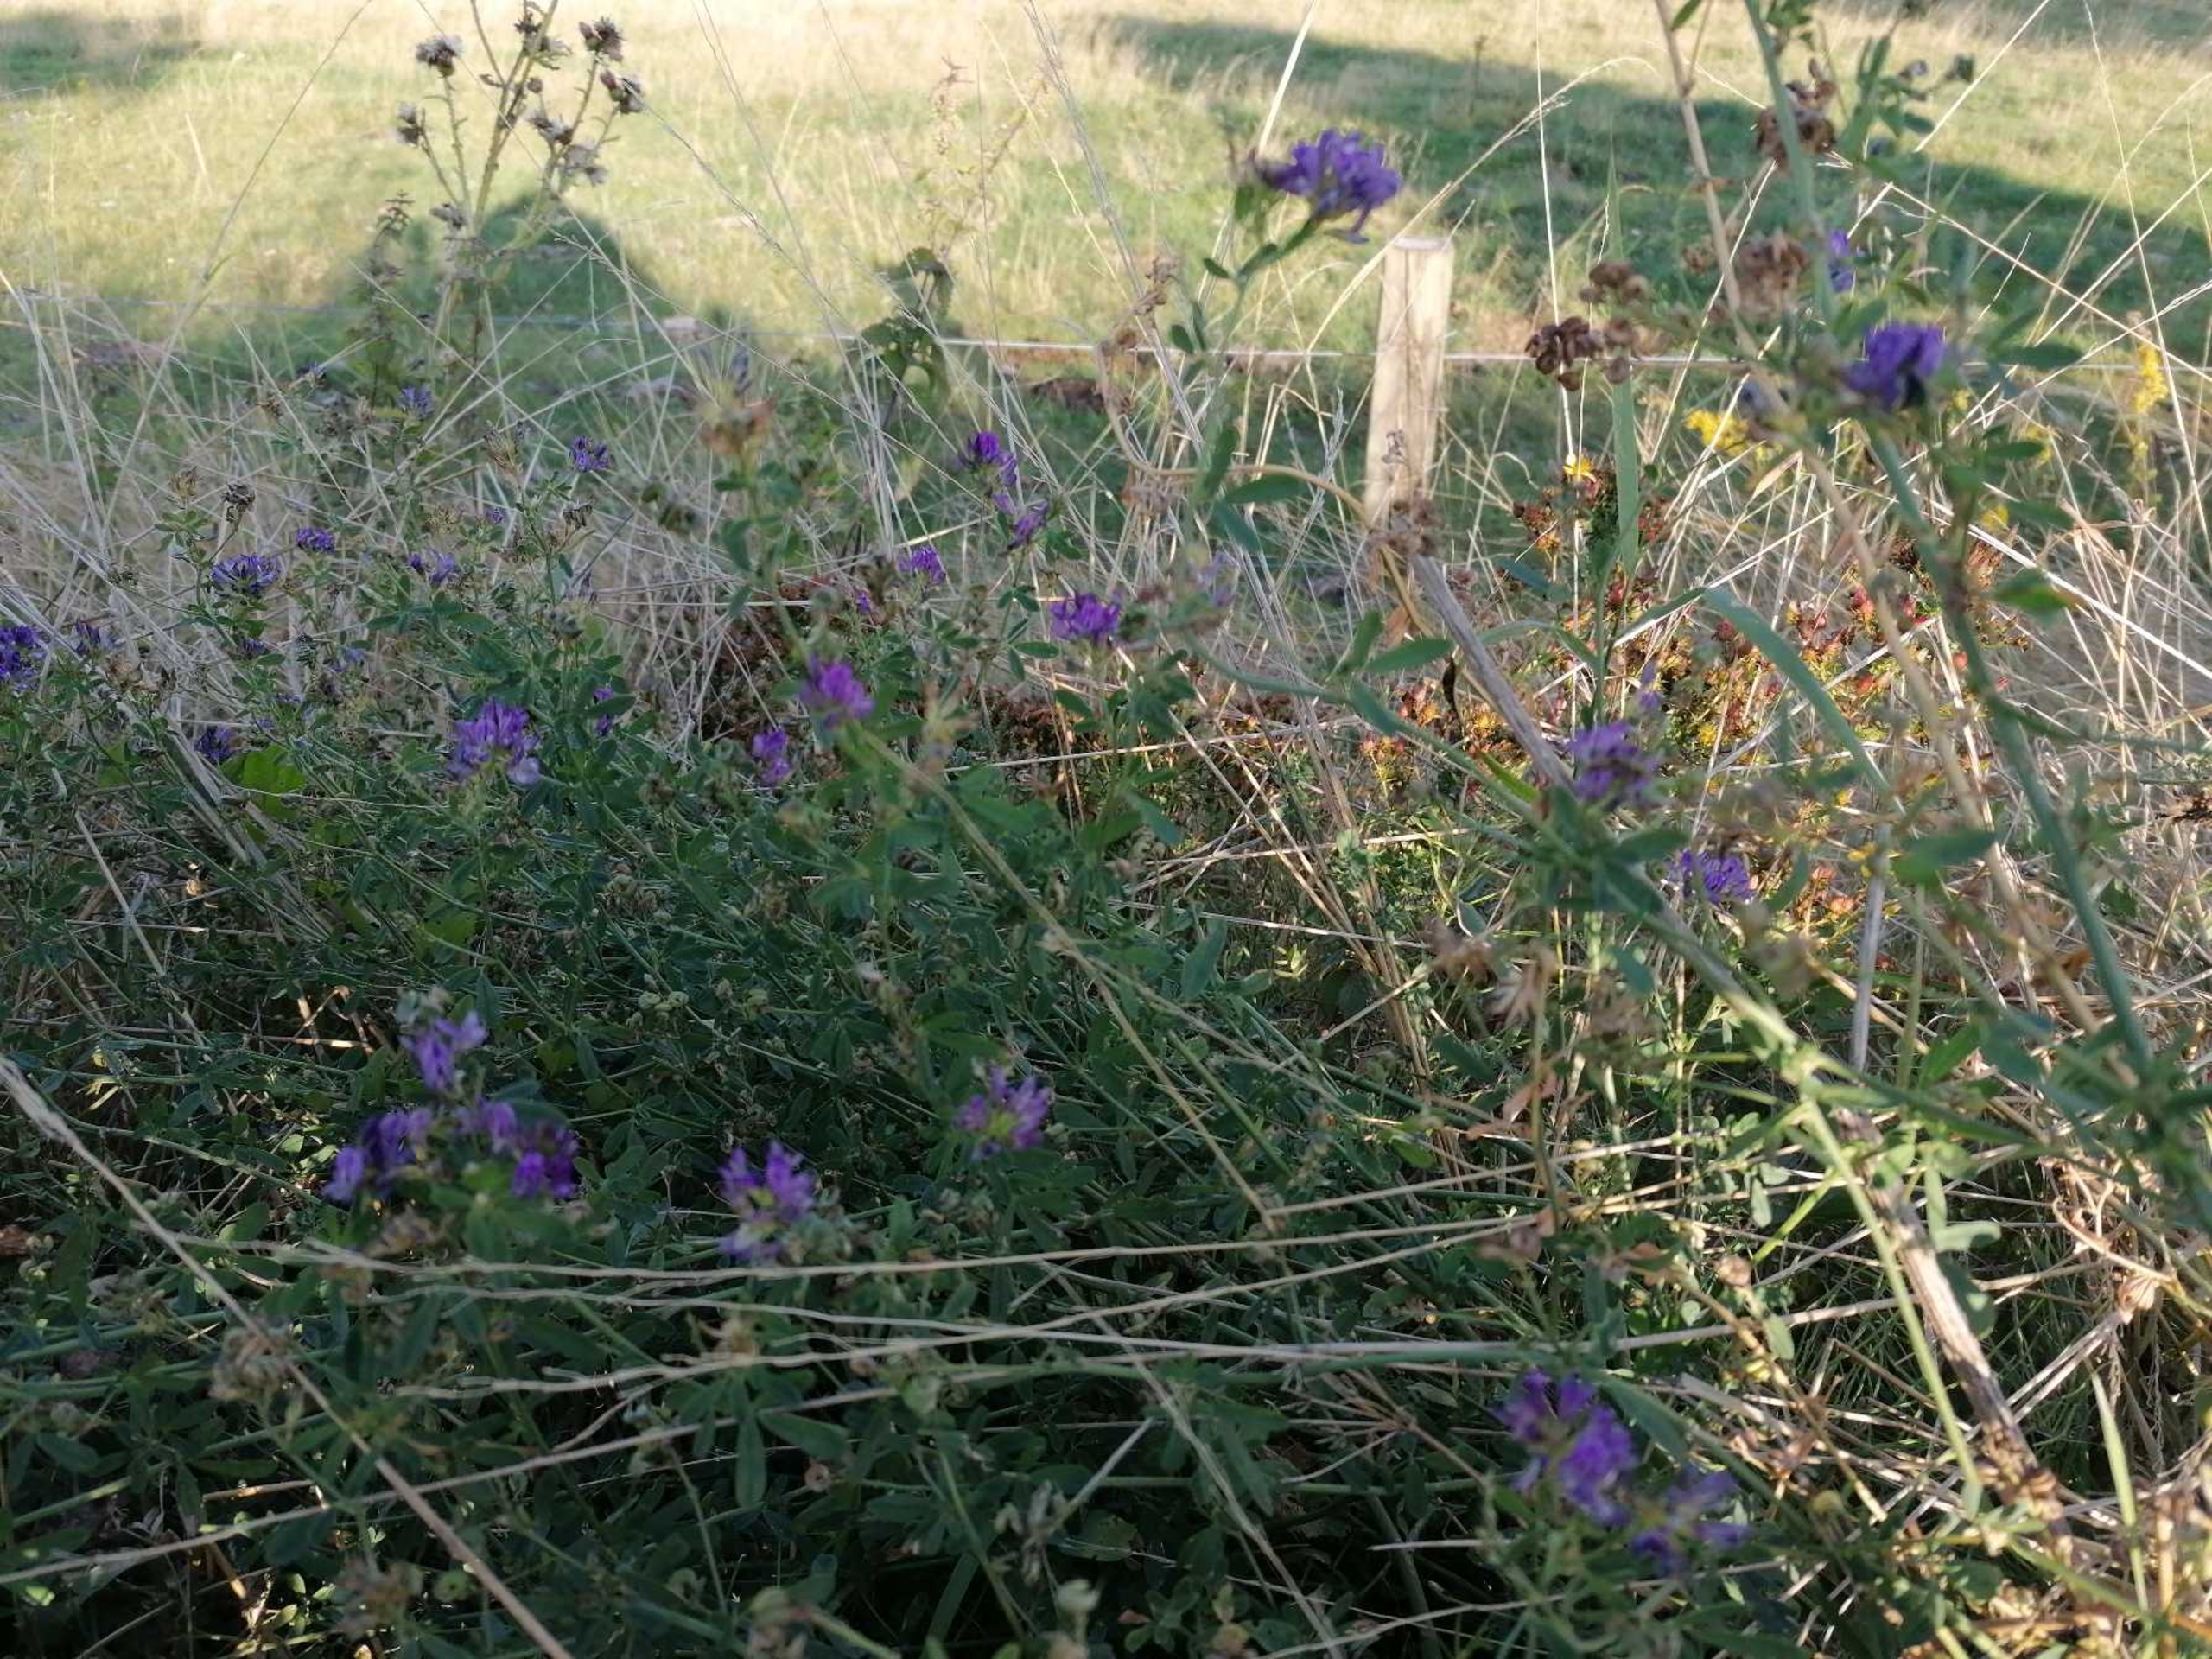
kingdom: Plantae
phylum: Tracheophyta
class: Magnoliopsida
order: Fabales
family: Fabaceae
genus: Medicago
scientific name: Medicago sativa
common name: Lucerne
